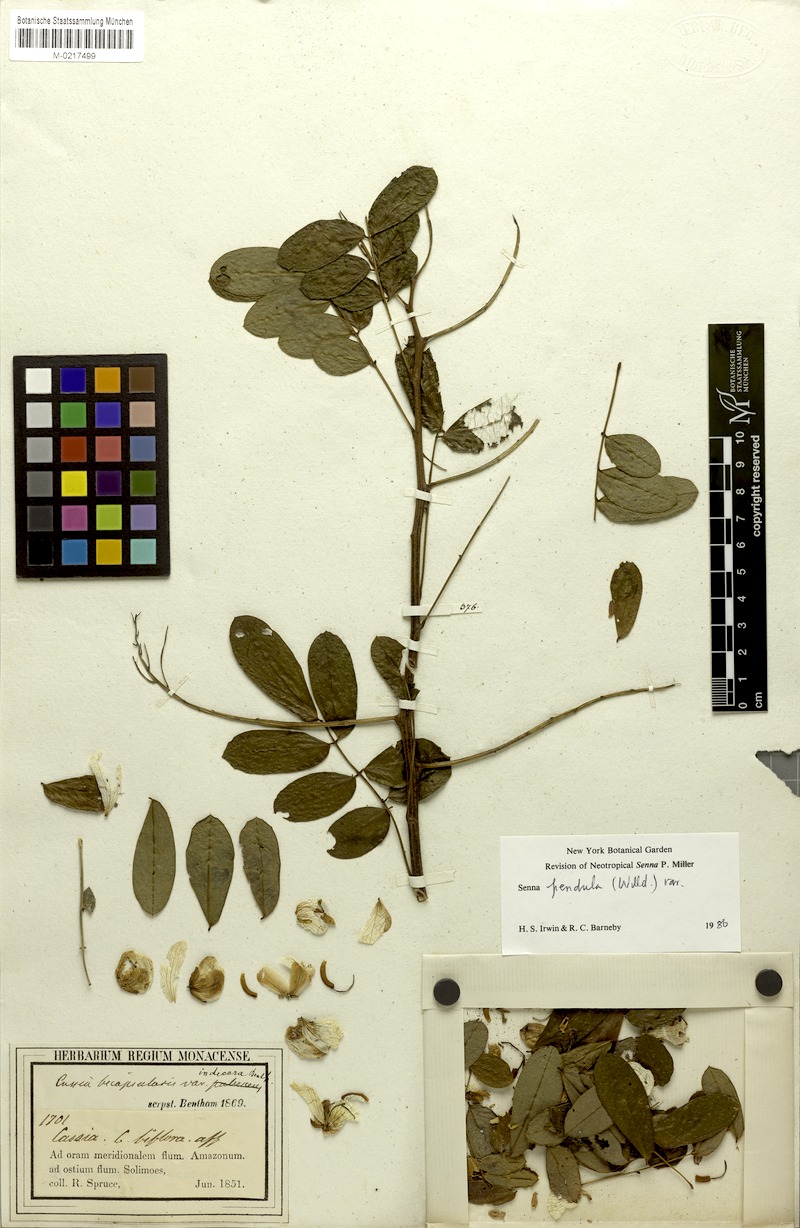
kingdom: Plantae
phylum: Tracheophyta
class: Magnoliopsida
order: Fabales
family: Fabaceae
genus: Senna
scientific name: Senna pendula
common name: Easter cassia
